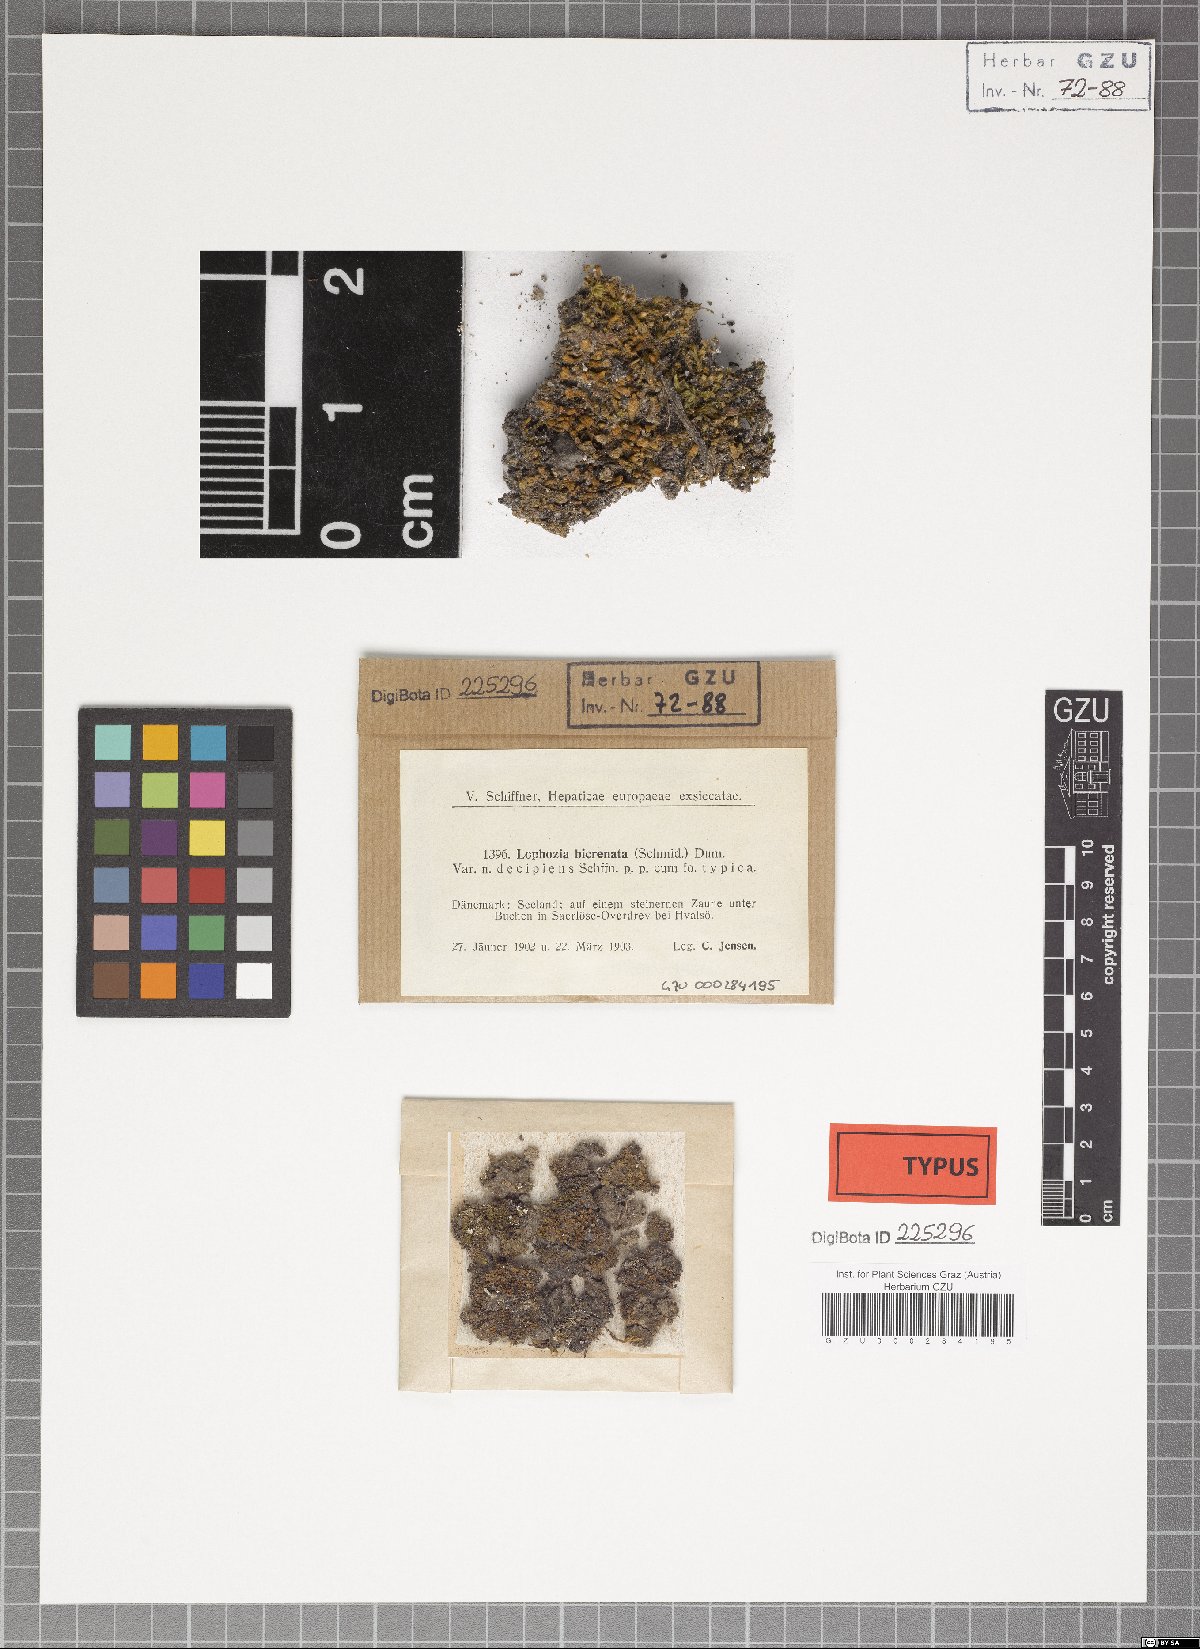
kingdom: Plantae
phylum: Marchantiophyta
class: Jungermanniopsida
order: Jungermanniales
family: Anastrophyllaceae
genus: Isopaches
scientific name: Isopaches bicrenatus
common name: Lesser notchwort
